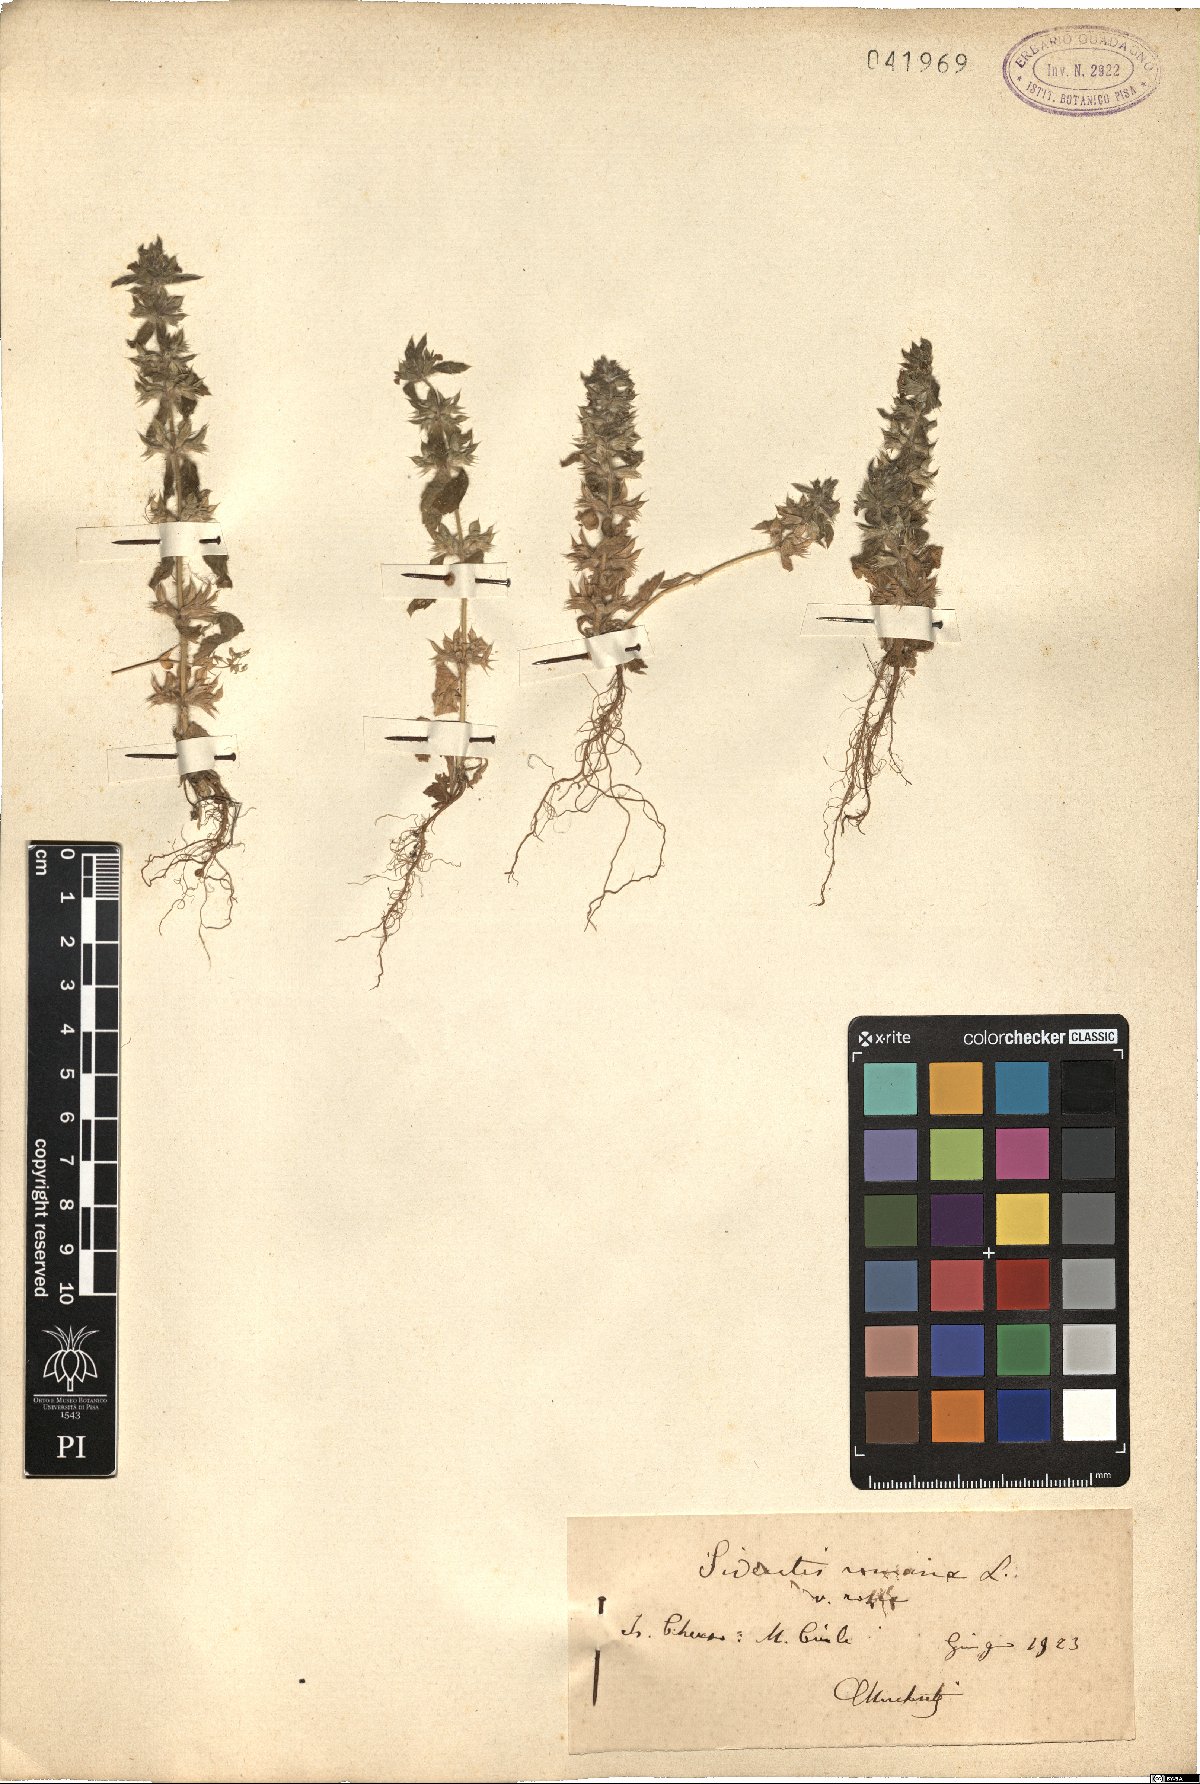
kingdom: Plantae
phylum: Tracheophyta
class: Magnoliopsida
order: Lamiales
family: Lamiaceae
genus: Sideritis
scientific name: Sideritis romana
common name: Simplebeak ironwort
